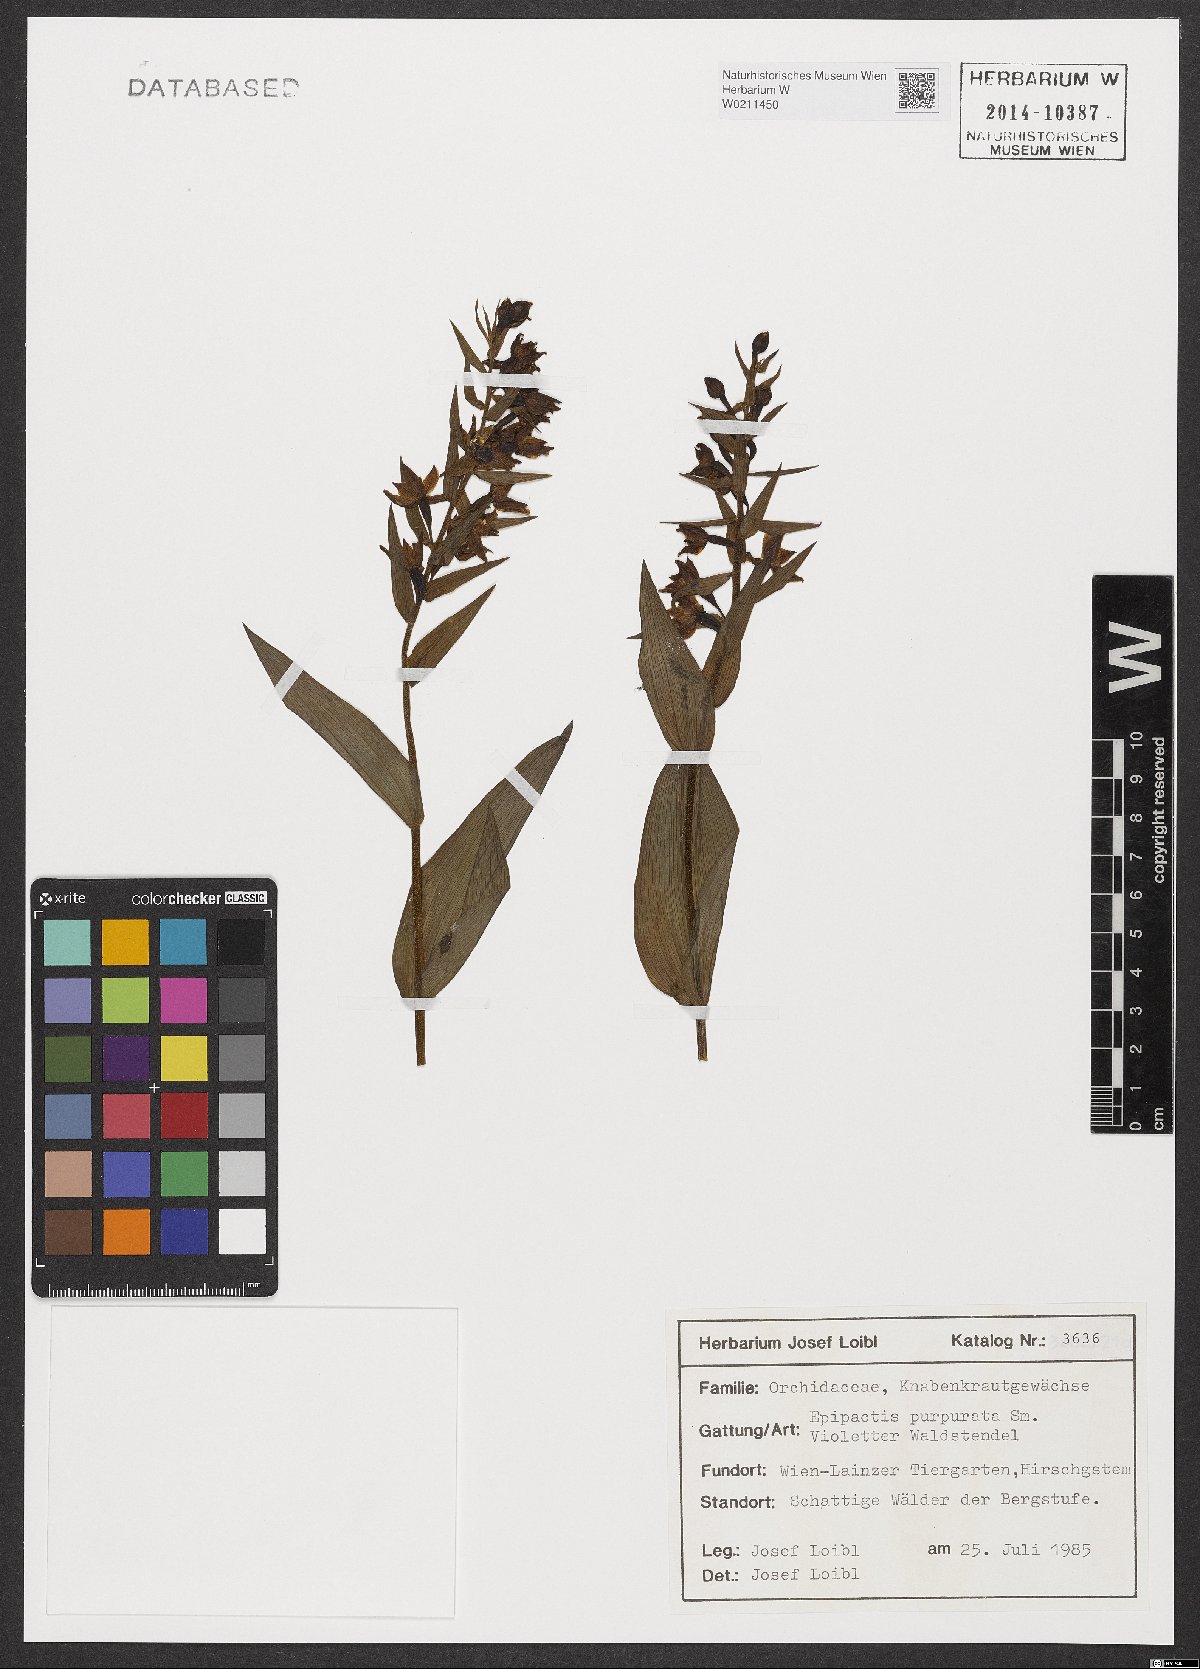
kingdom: Plantae
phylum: Tracheophyta
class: Liliopsida
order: Asparagales
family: Orchidaceae
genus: Epipactis
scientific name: Epipactis purpurata
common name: Violet helleborine
